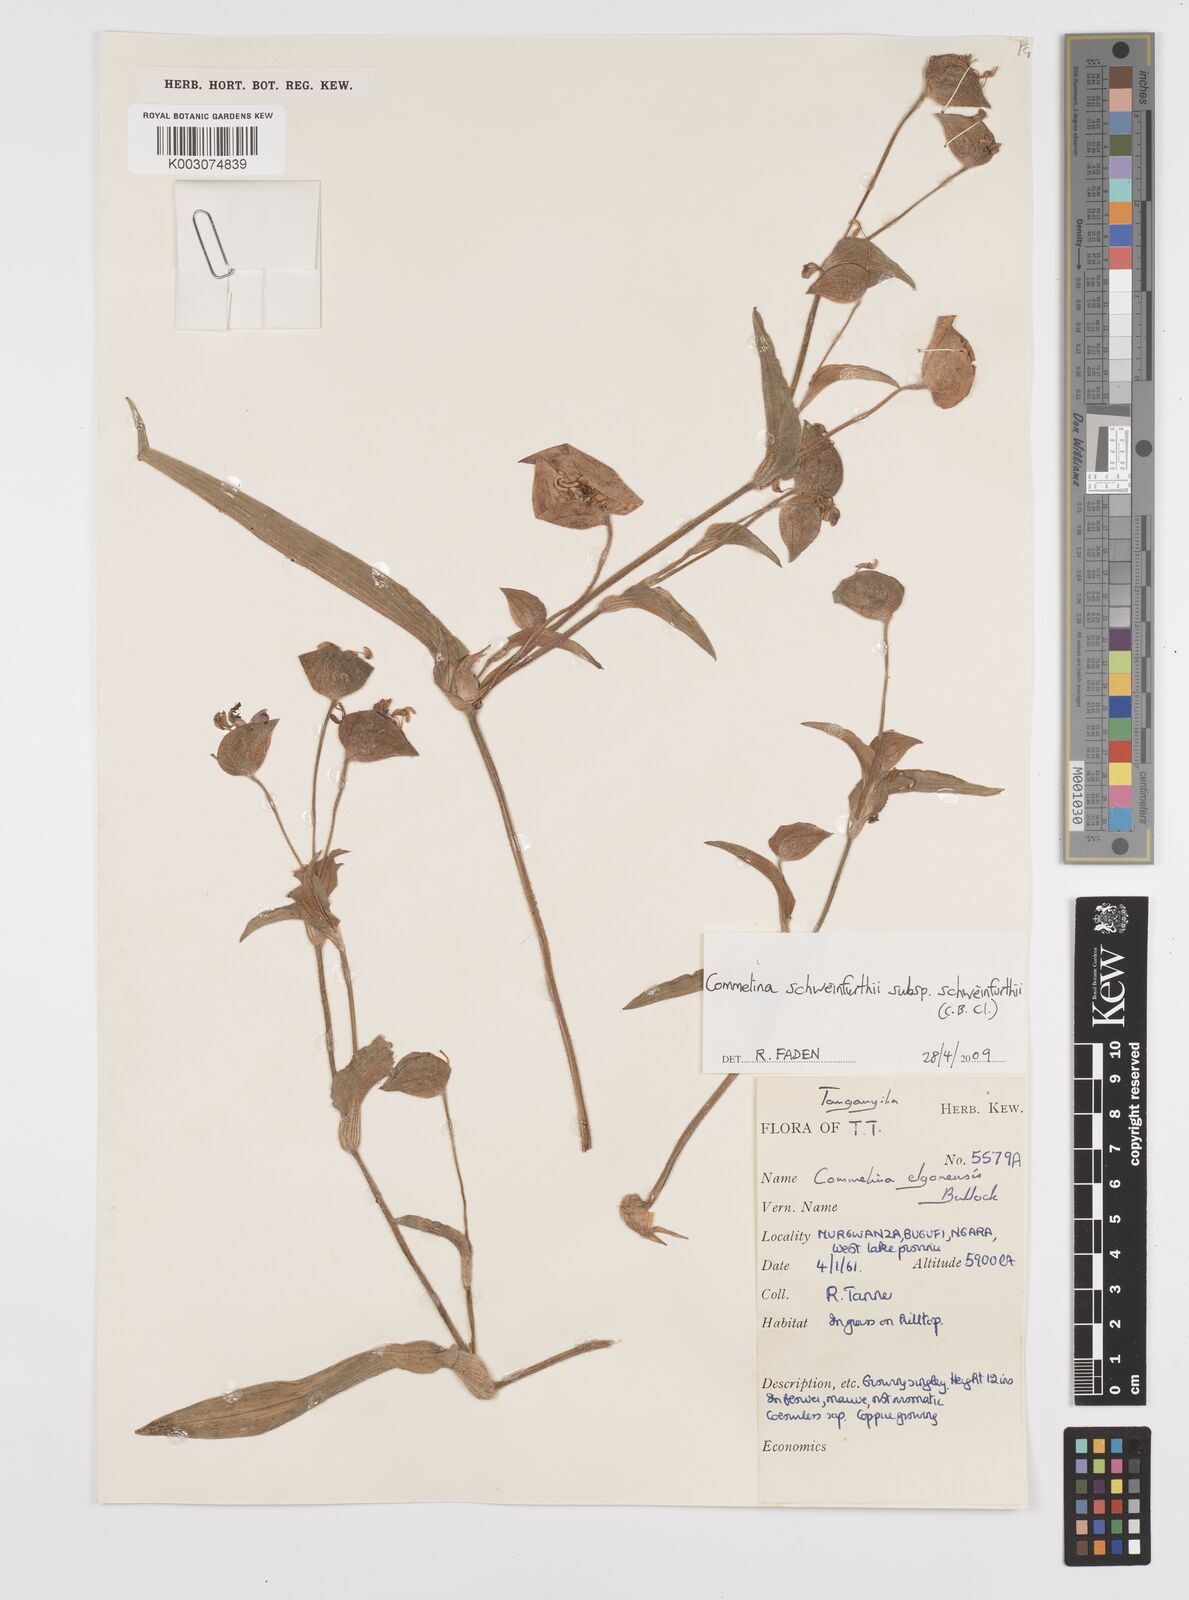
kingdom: Plantae
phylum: Tracheophyta
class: Liliopsida
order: Commelinales
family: Commelinaceae
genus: Commelina
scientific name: Commelina schweinfurthii
